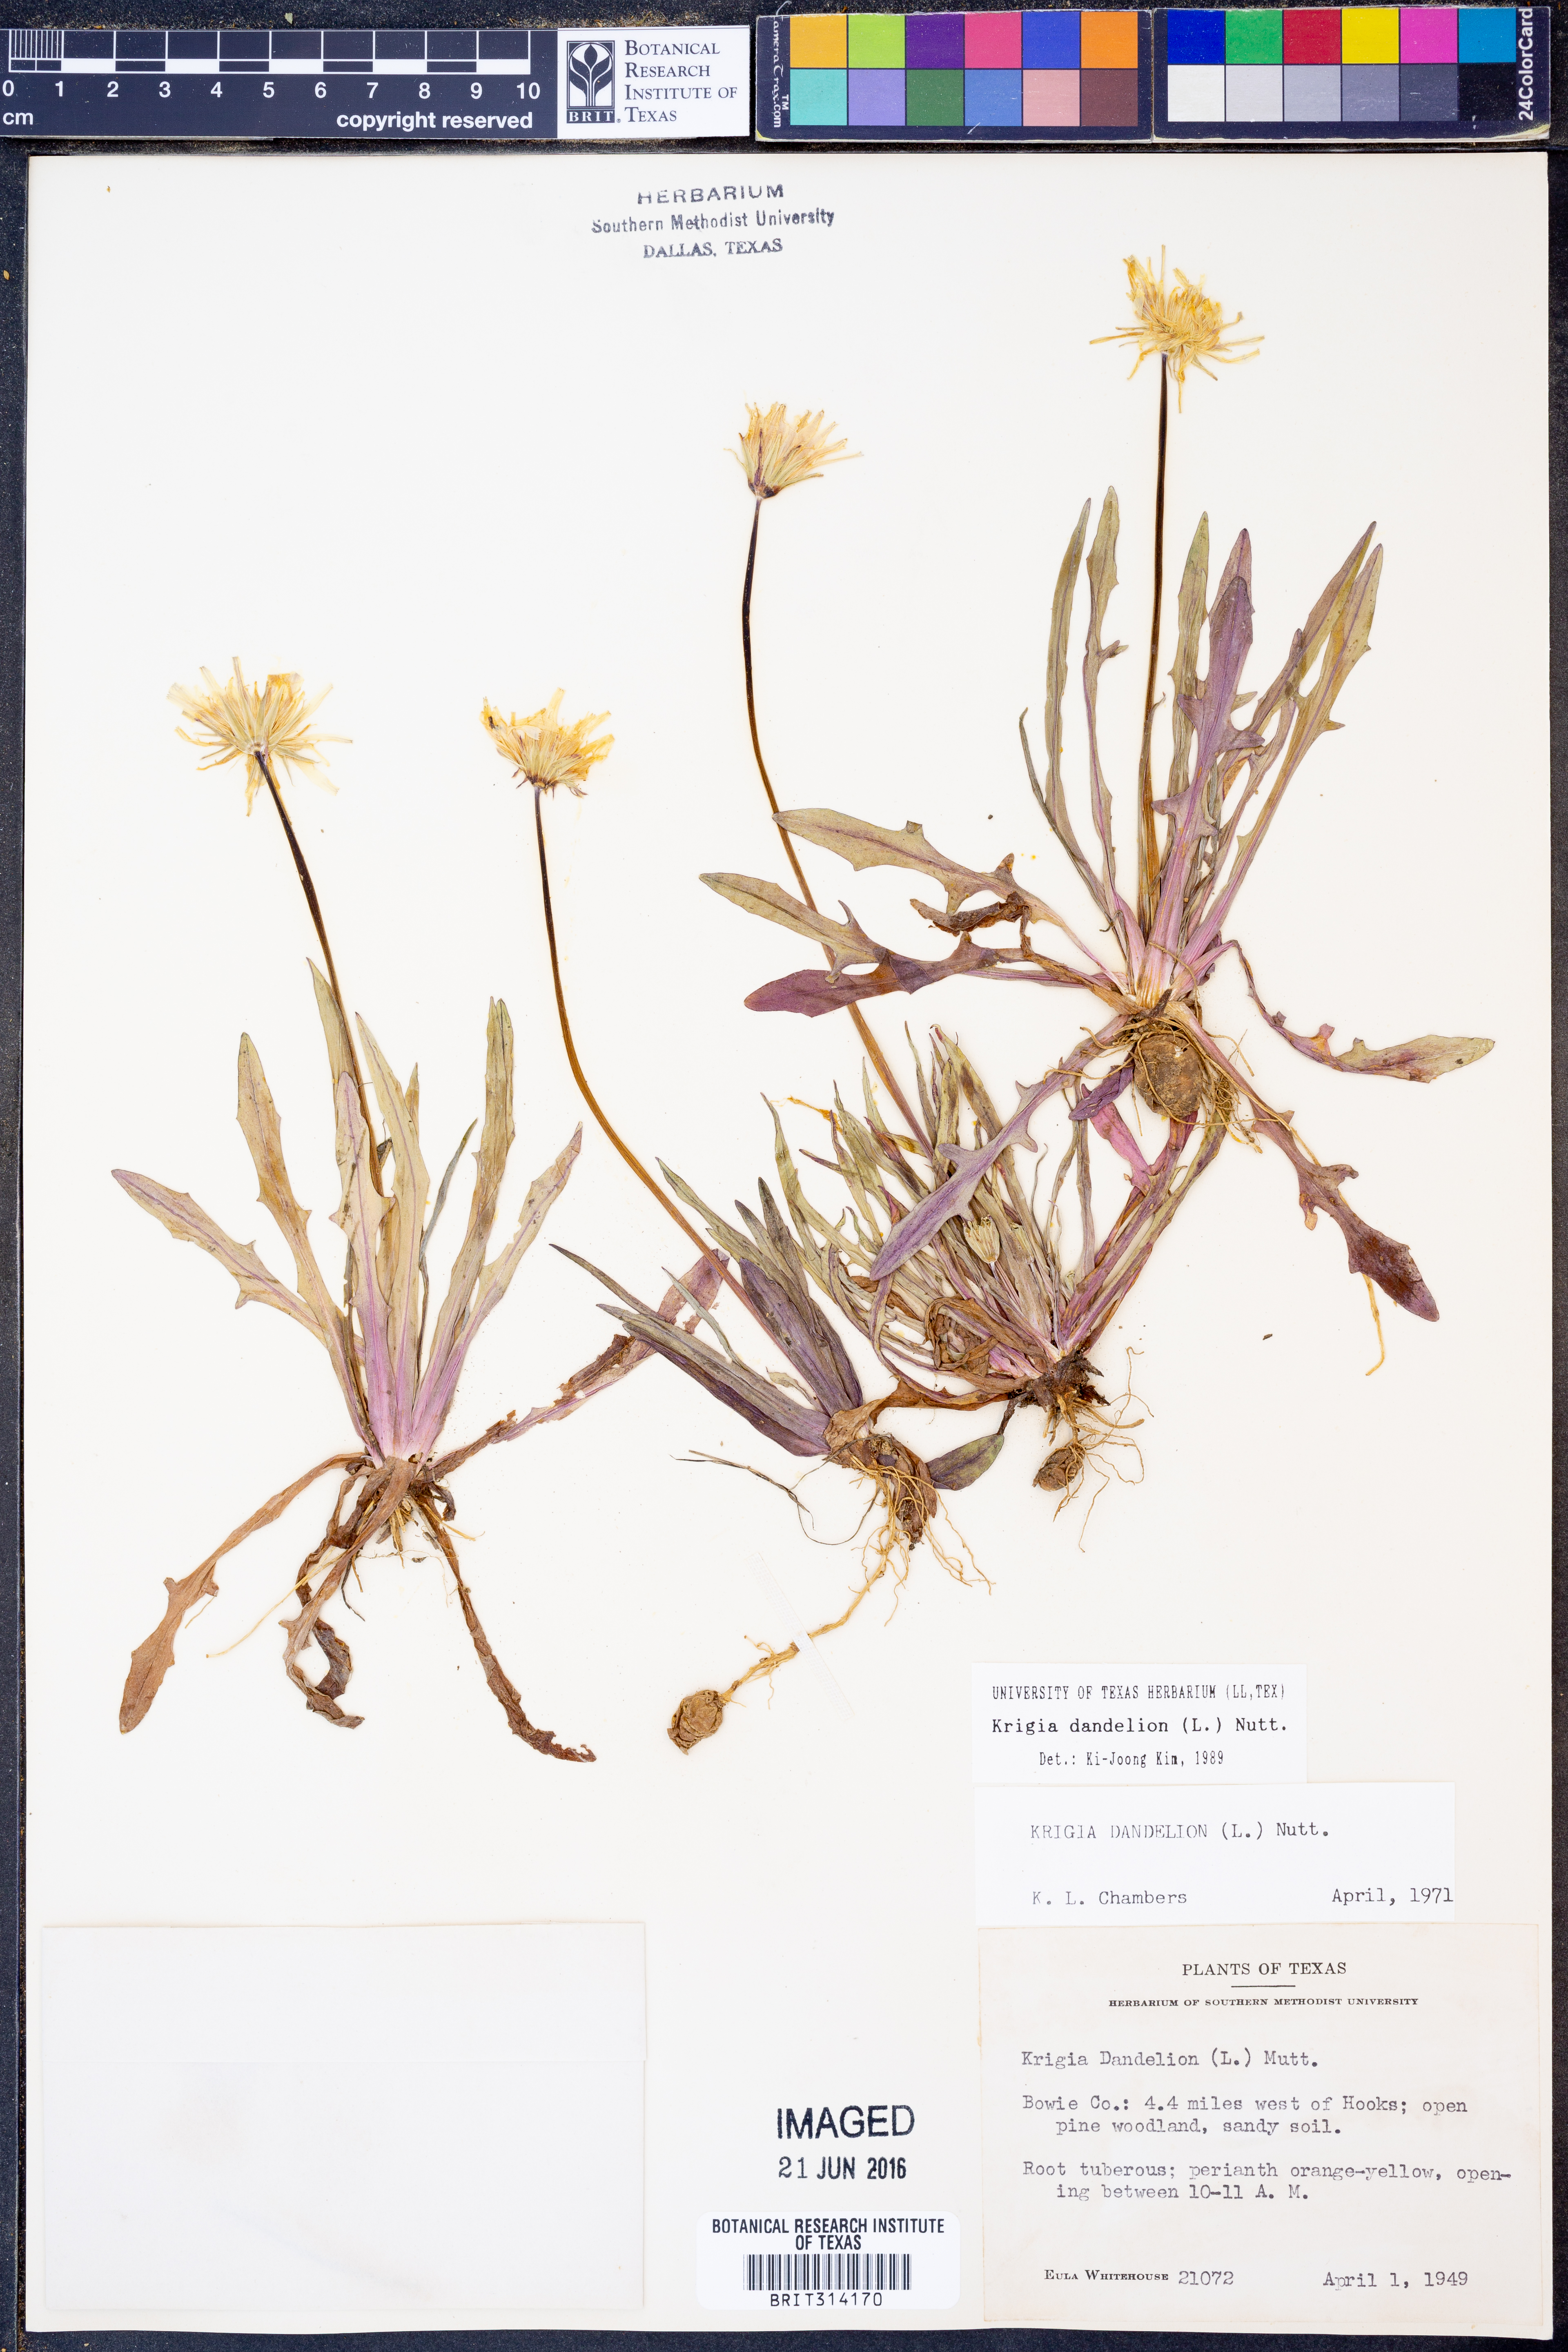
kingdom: Plantae
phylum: Tracheophyta
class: Magnoliopsida
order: Asterales
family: Asteraceae
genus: Krigia
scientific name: Krigia dandelion
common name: Colonial dwarf-dandelion
